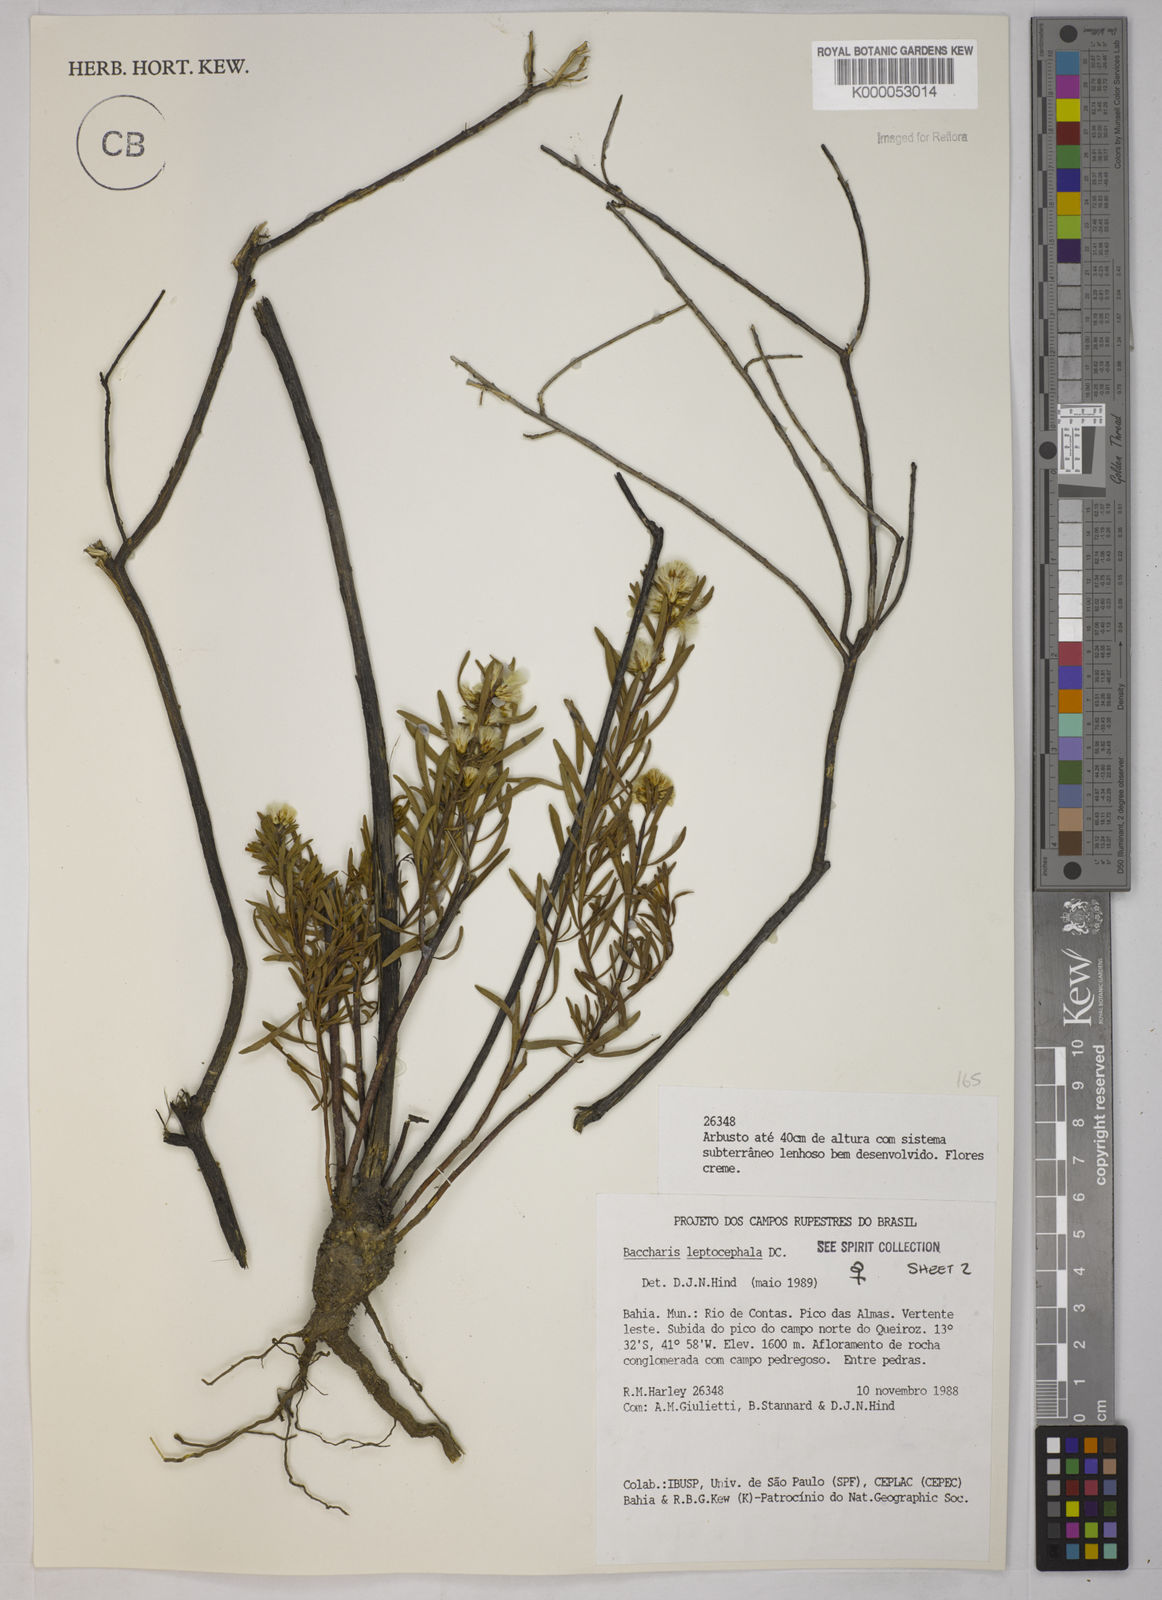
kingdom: Plantae
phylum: Tracheophyta
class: Magnoliopsida
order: Asterales
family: Asteraceae
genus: Baccharis
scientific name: Baccharis leptocephala
